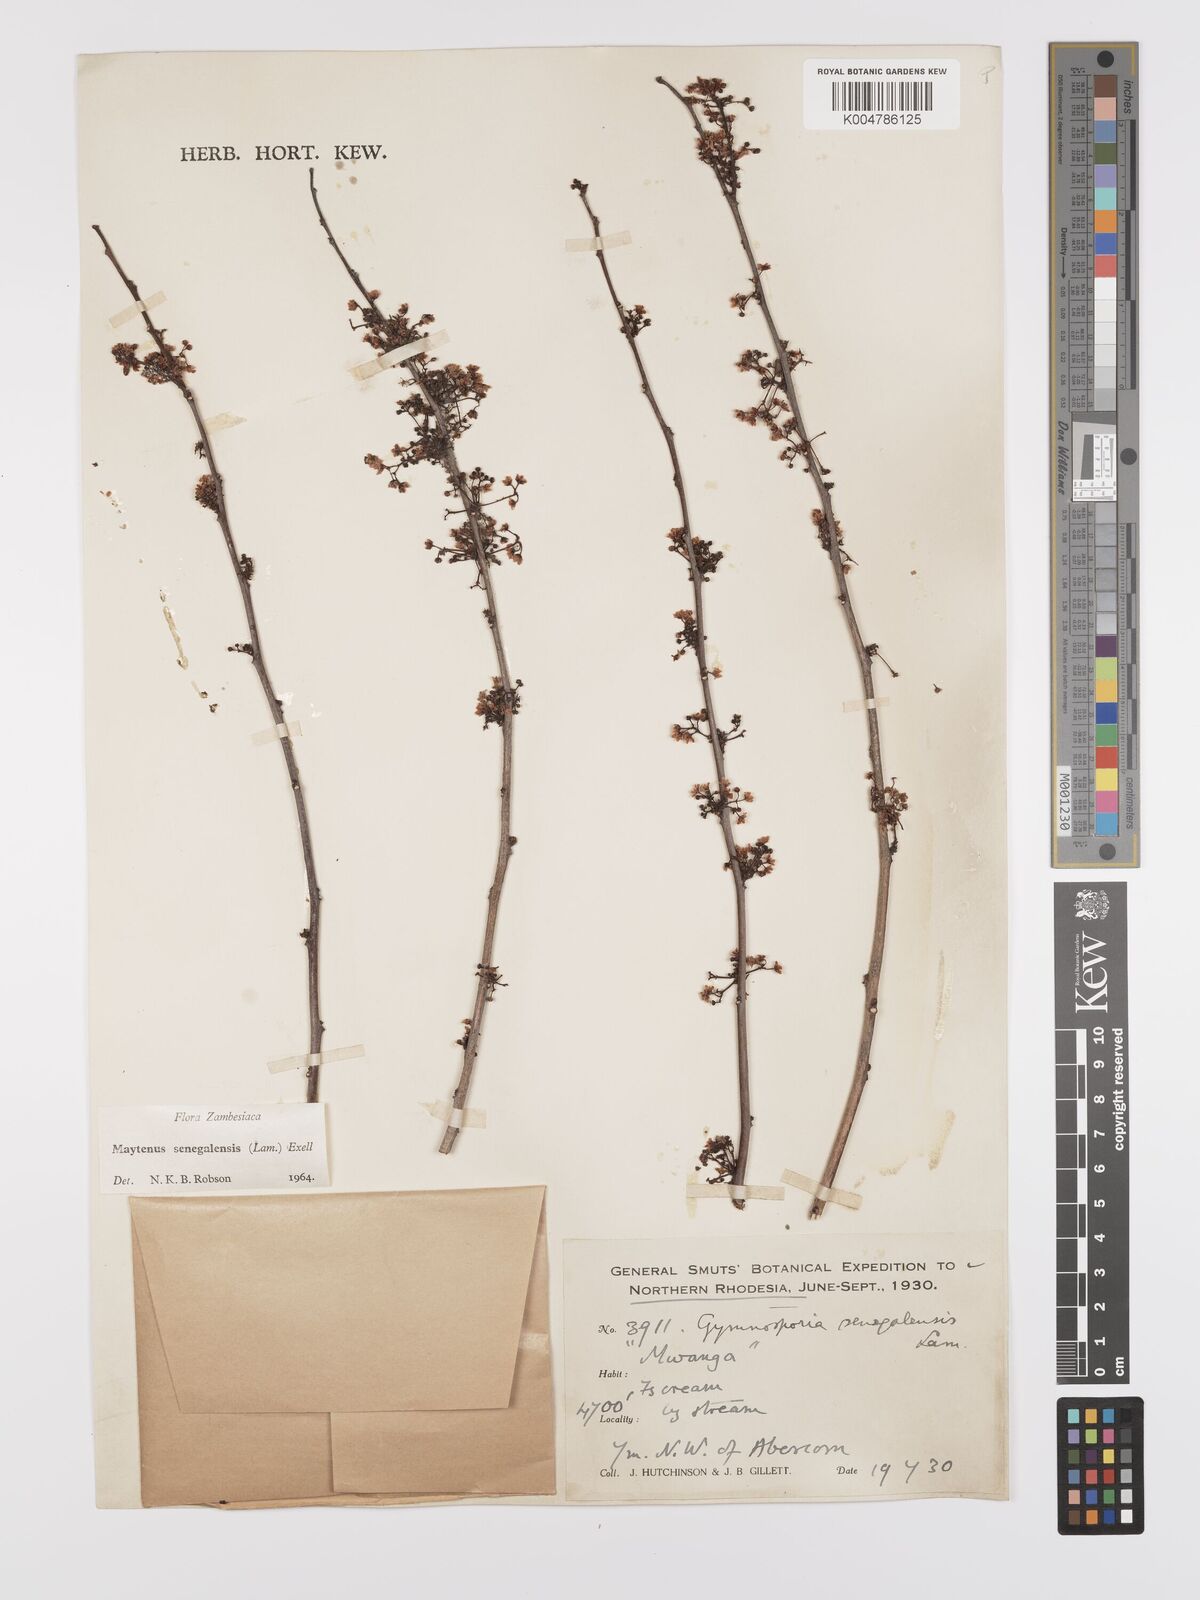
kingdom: Plantae
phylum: Tracheophyta
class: Magnoliopsida
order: Celastrales
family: Celastraceae
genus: Gymnosporia
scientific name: Gymnosporia senegalensis
